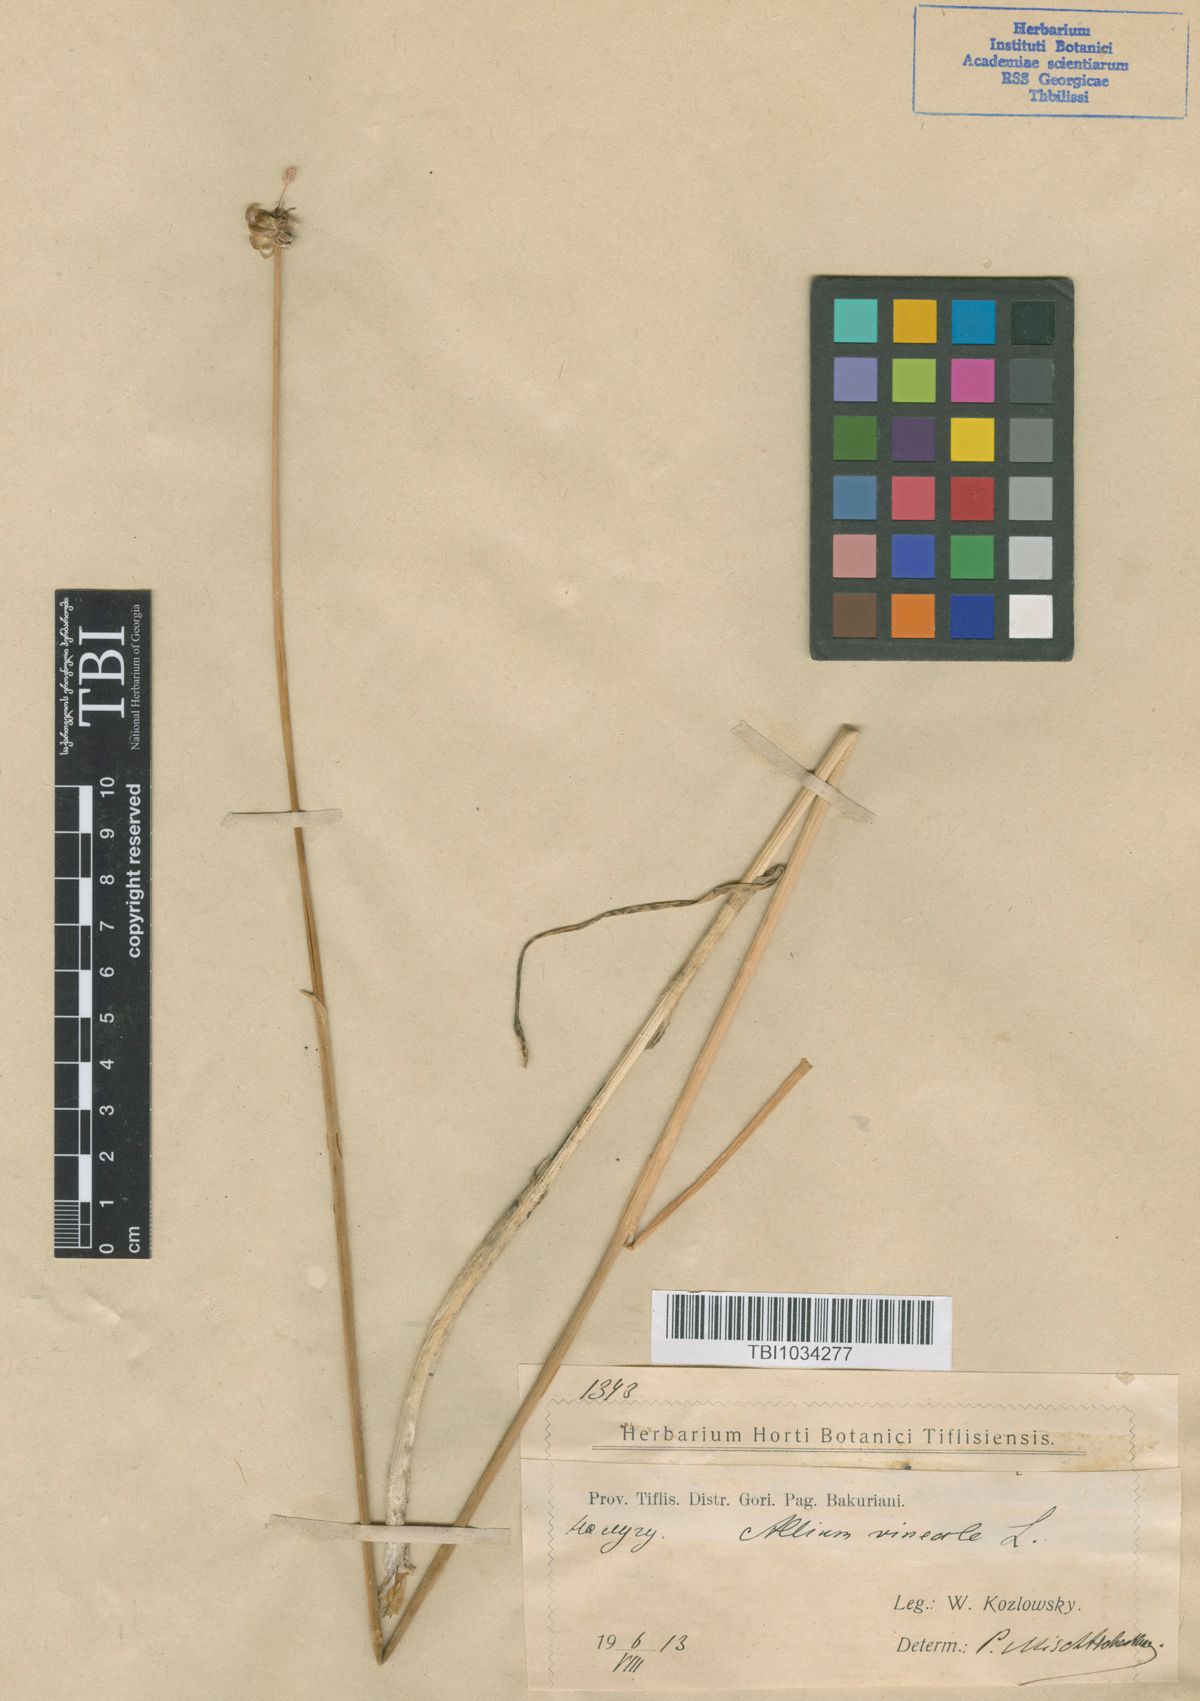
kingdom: Plantae
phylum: Tracheophyta
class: Liliopsida
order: Asparagales
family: Amaryllidaceae
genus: Allium
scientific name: Allium vineale
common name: Crow garlic
